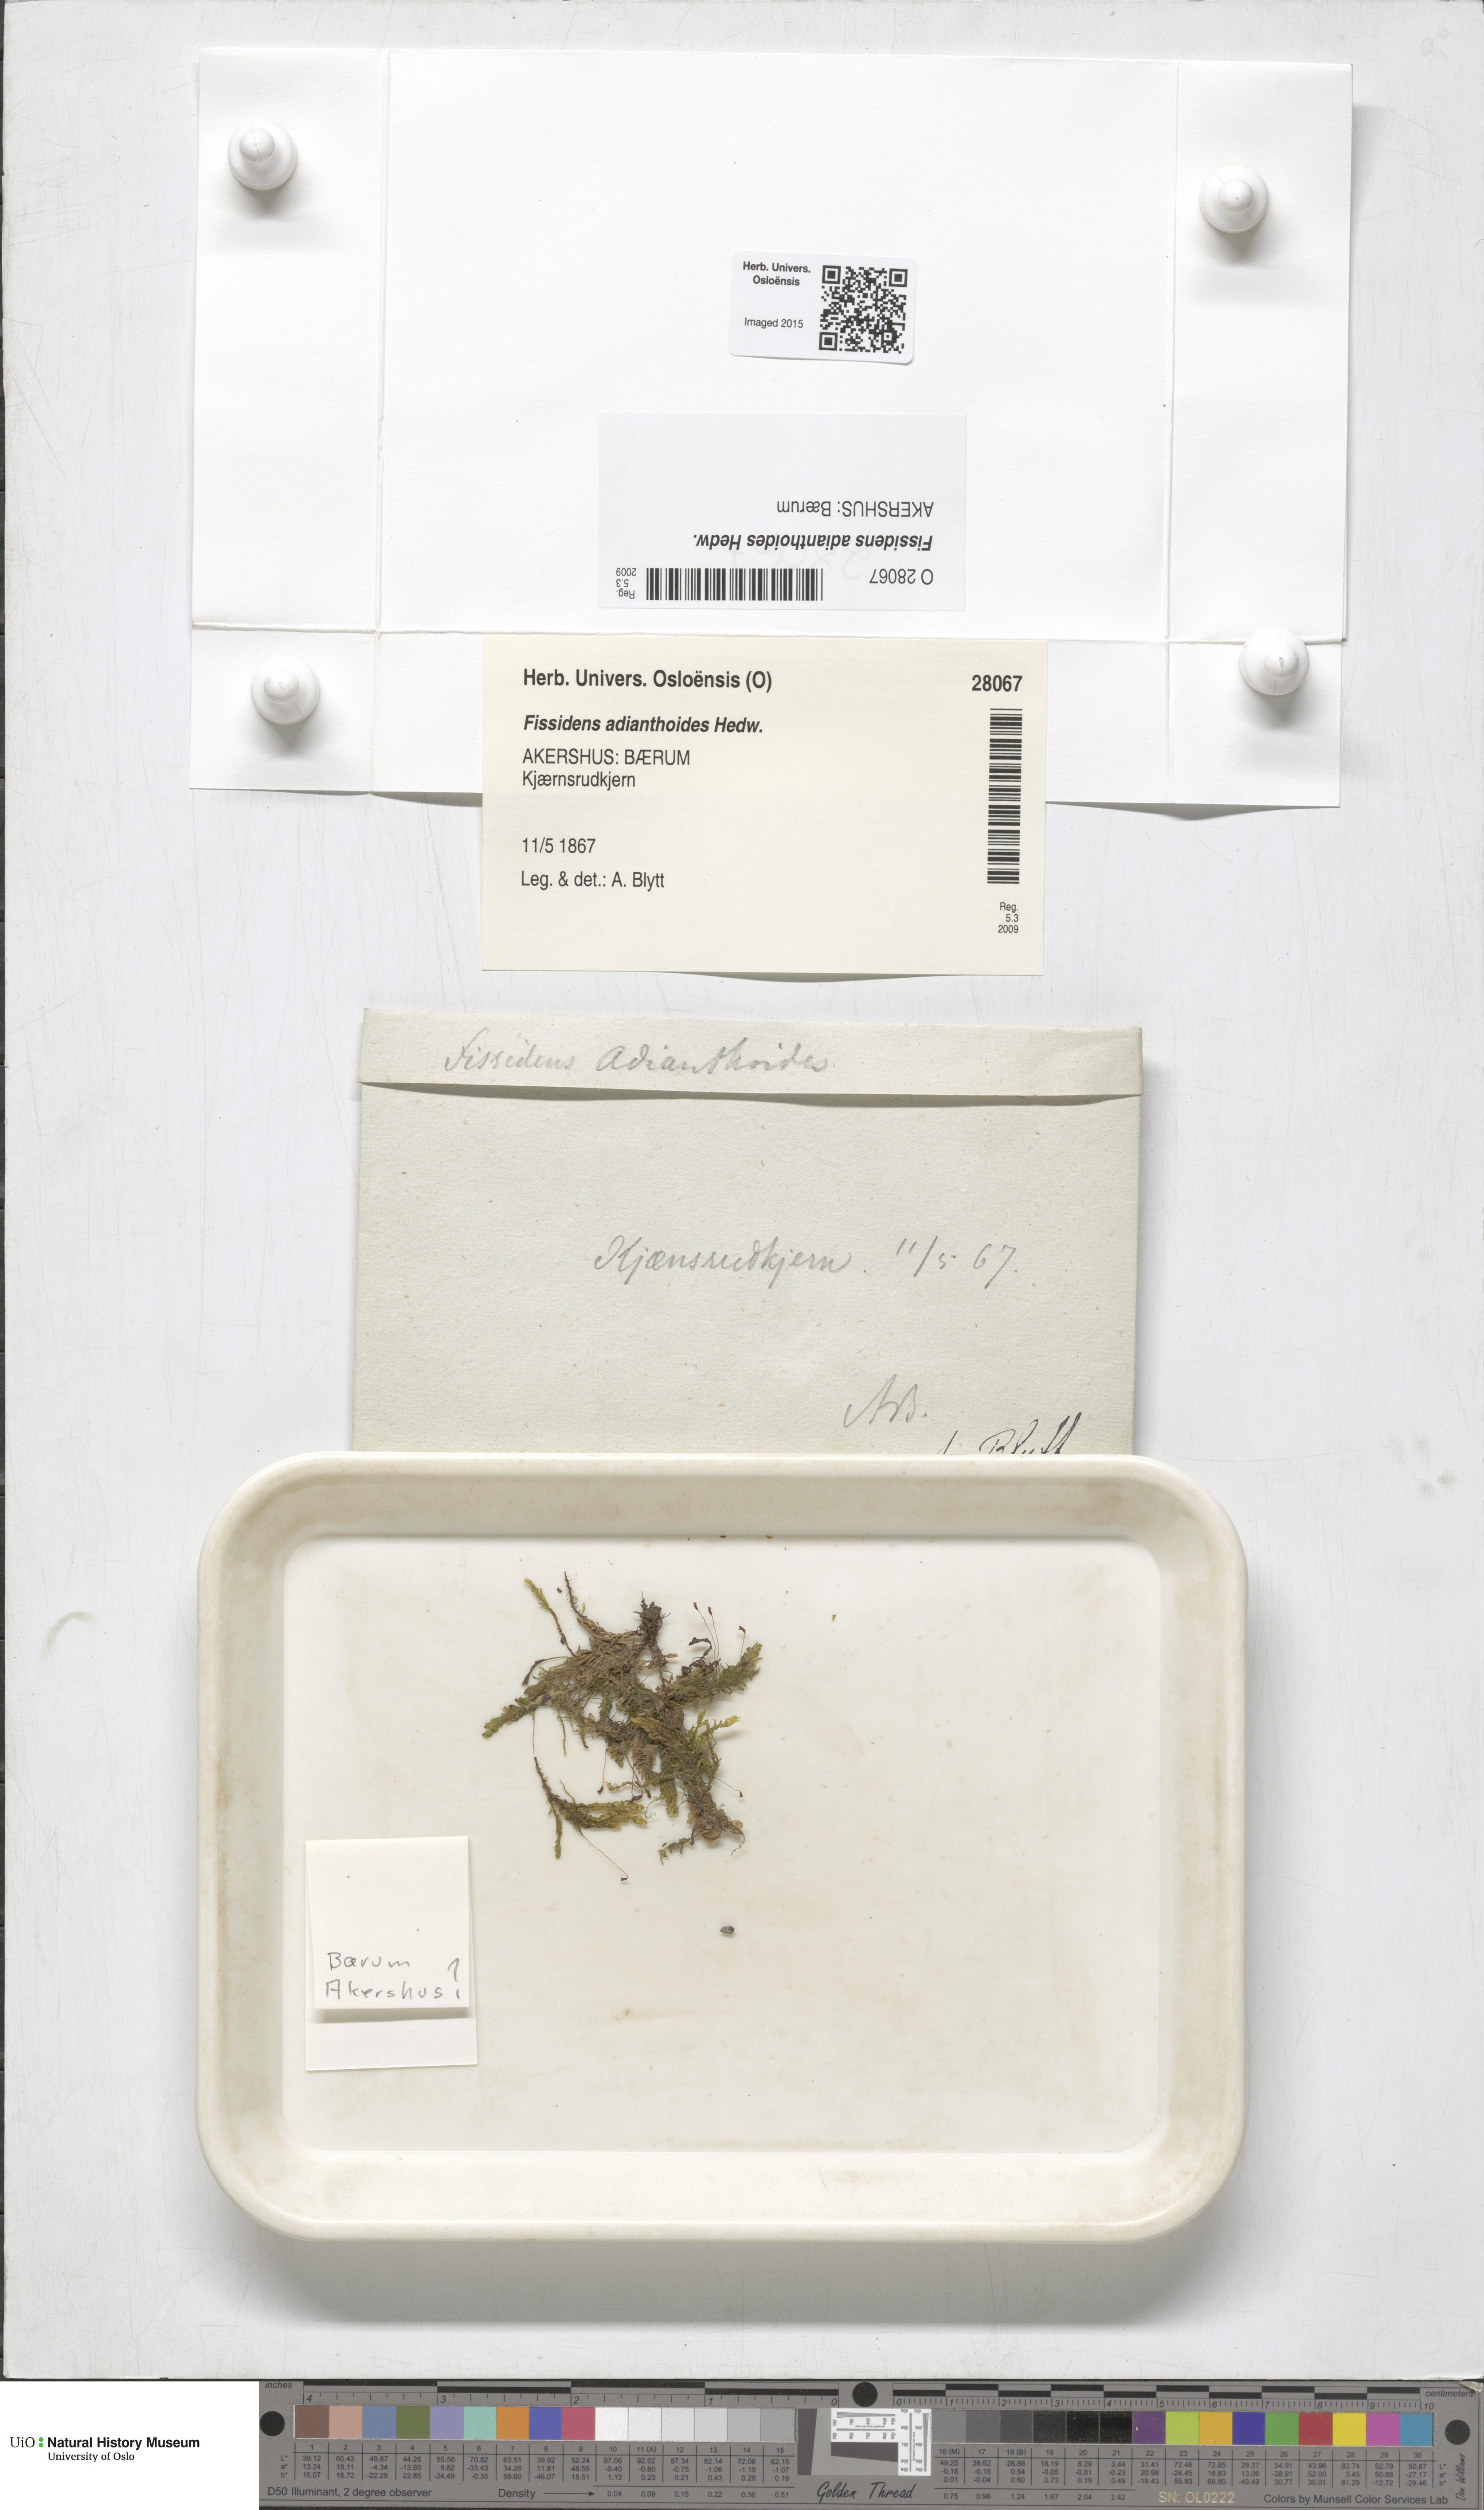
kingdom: Plantae
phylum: Bryophyta
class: Bryopsida
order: Dicranales
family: Fissidentaceae
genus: Fissidens
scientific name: Fissidens adianthoides
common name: Maidenhair pocket moss
